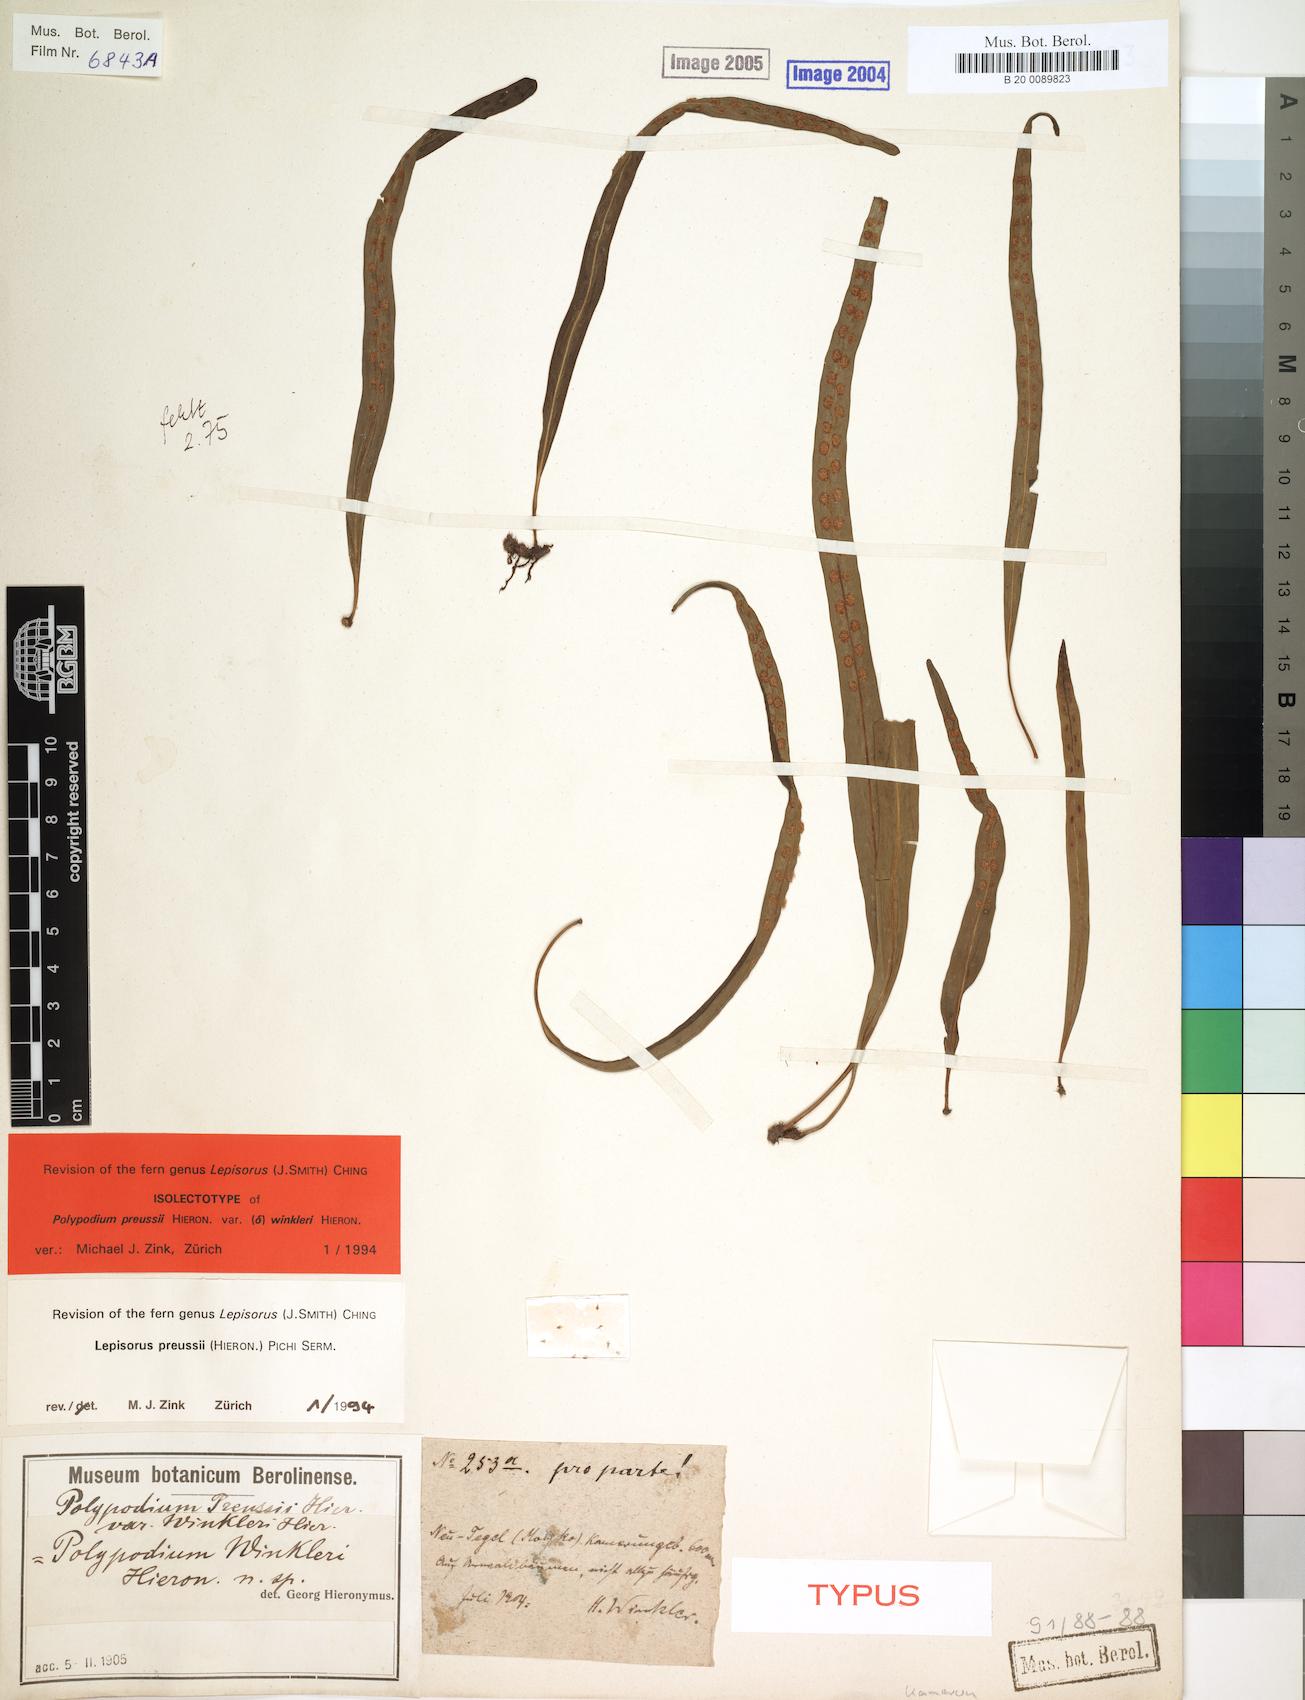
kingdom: Plantae
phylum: Tracheophyta
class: Polypodiopsida
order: Polypodiales
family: Polypodiaceae
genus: Lepisorus
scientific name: Lepisorus excavatus
